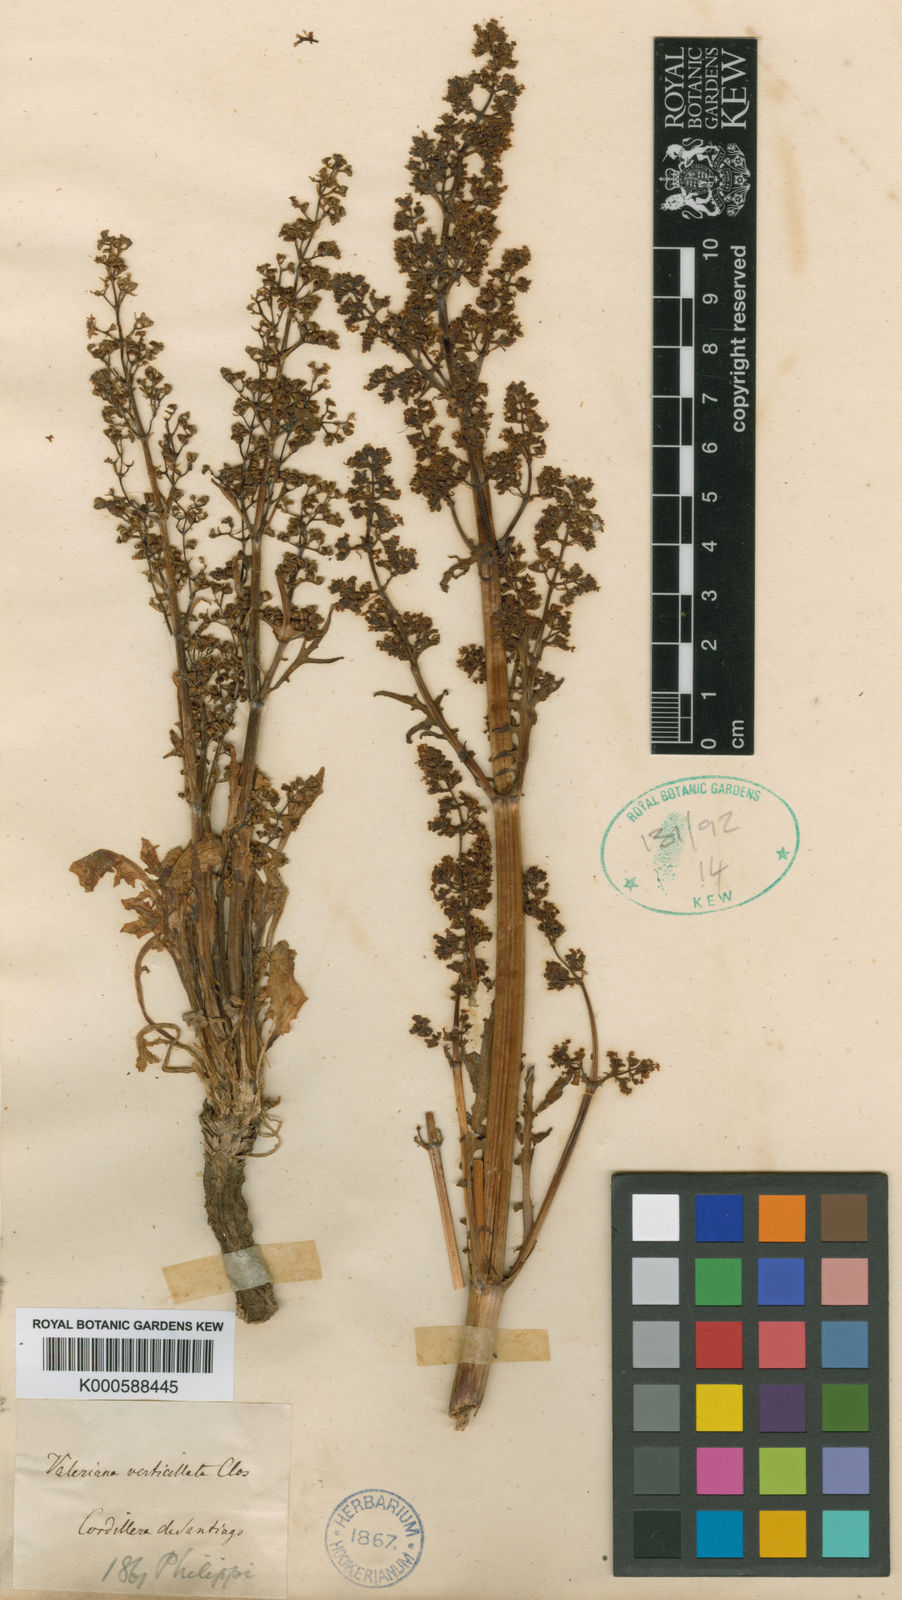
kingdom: Plantae
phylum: Tracheophyta
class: Magnoliopsida
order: Dipsacales
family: Caprifoliaceae
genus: Valeriana
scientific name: Valeriana verticillata
